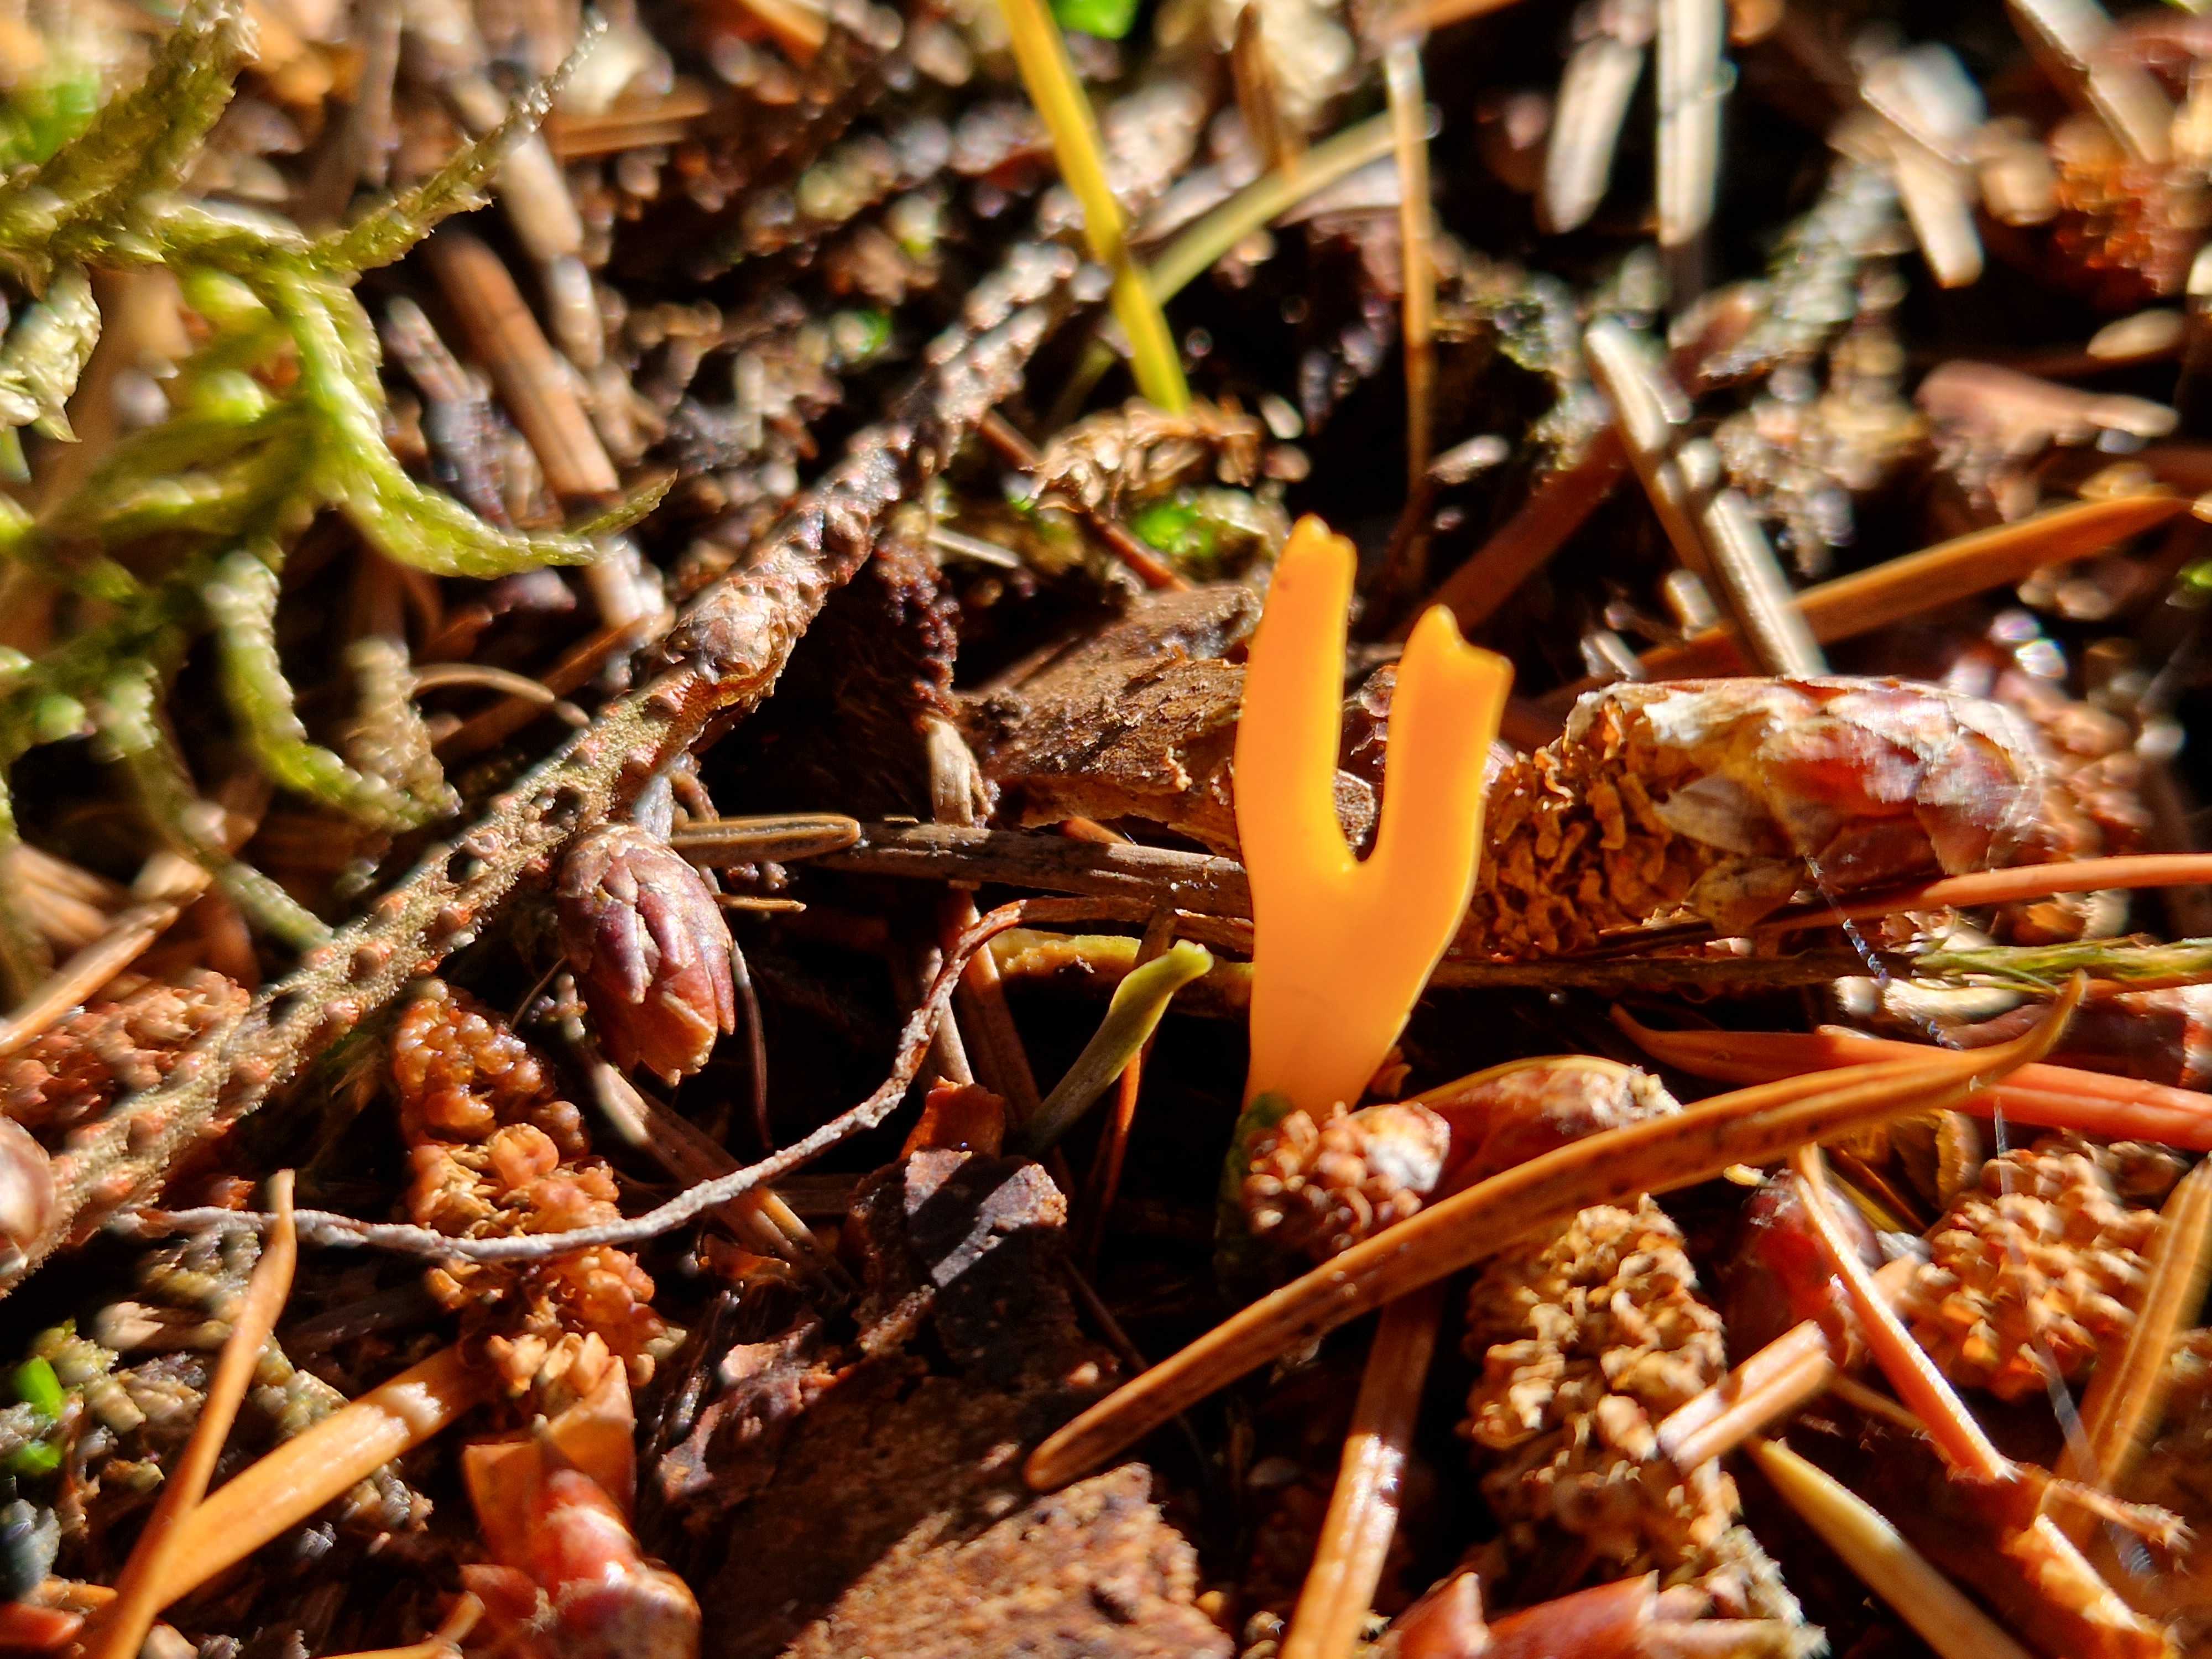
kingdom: Fungi
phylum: Basidiomycota
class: Dacrymycetes
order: Dacrymycetales
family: Dacrymycetaceae
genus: Calocera
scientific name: Calocera viscosa
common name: almindelig guldgaffel
